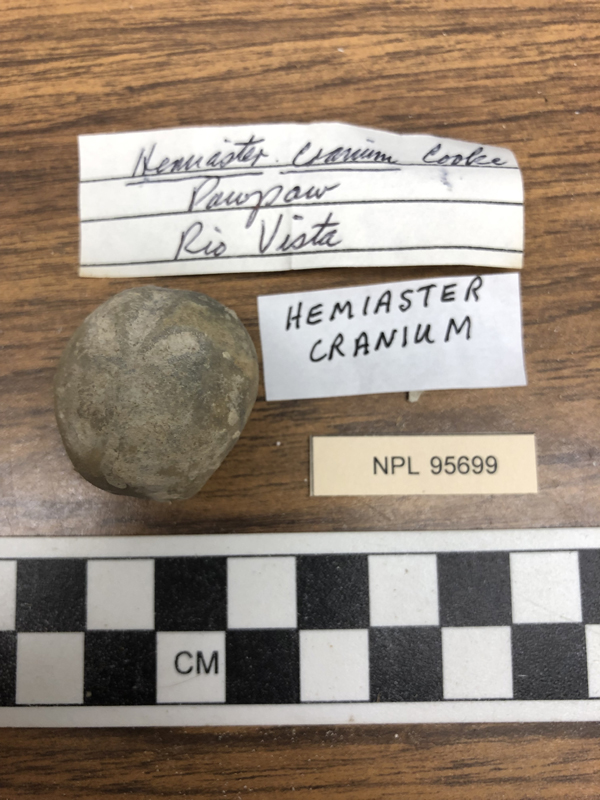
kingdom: Animalia
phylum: Echinodermata
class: Echinoidea
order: Spatangoida
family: Hemiasteridae
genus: Hemiaster
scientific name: Hemiaster cranium
